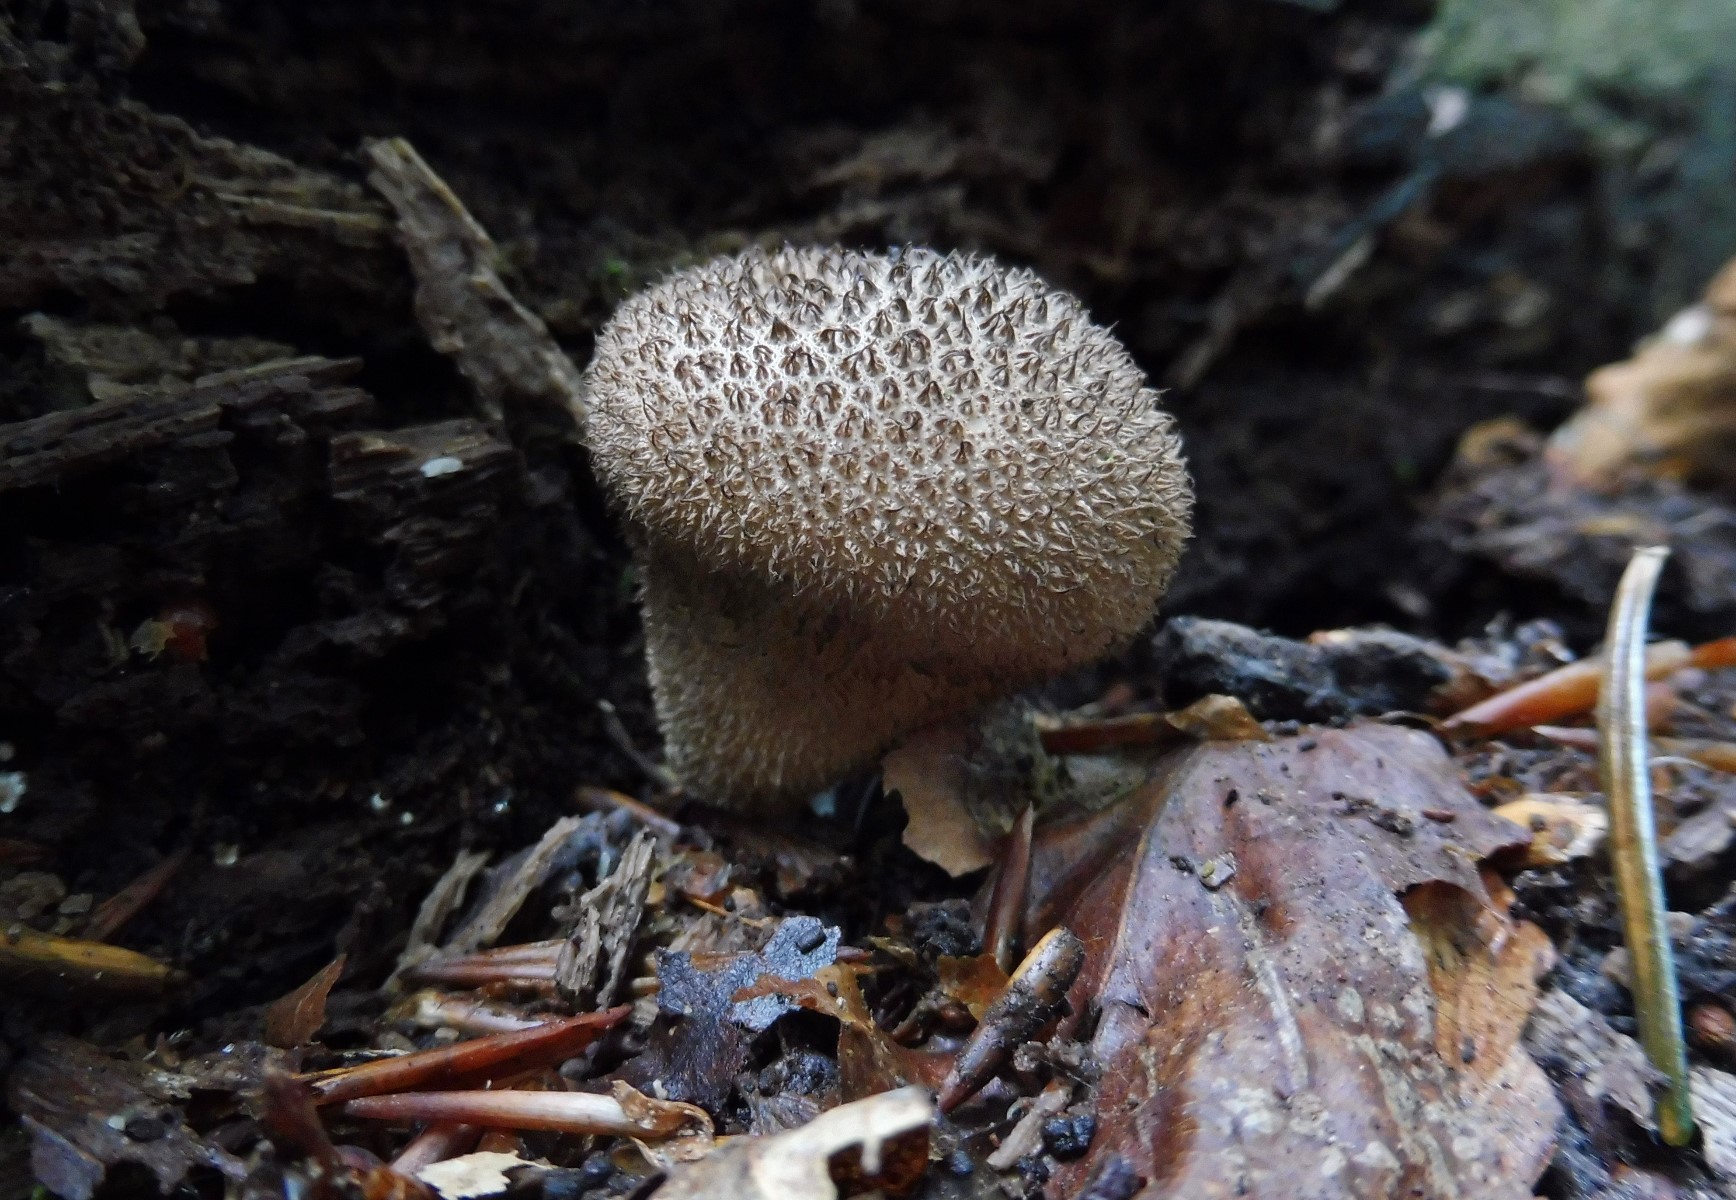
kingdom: Fungi
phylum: Basidiomycota
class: Agaricomycetes
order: Agaricales
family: Lycoperdaceae
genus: Lycoperdon
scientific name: Lycoperdon nigrescens
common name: sortagtig støvbold
